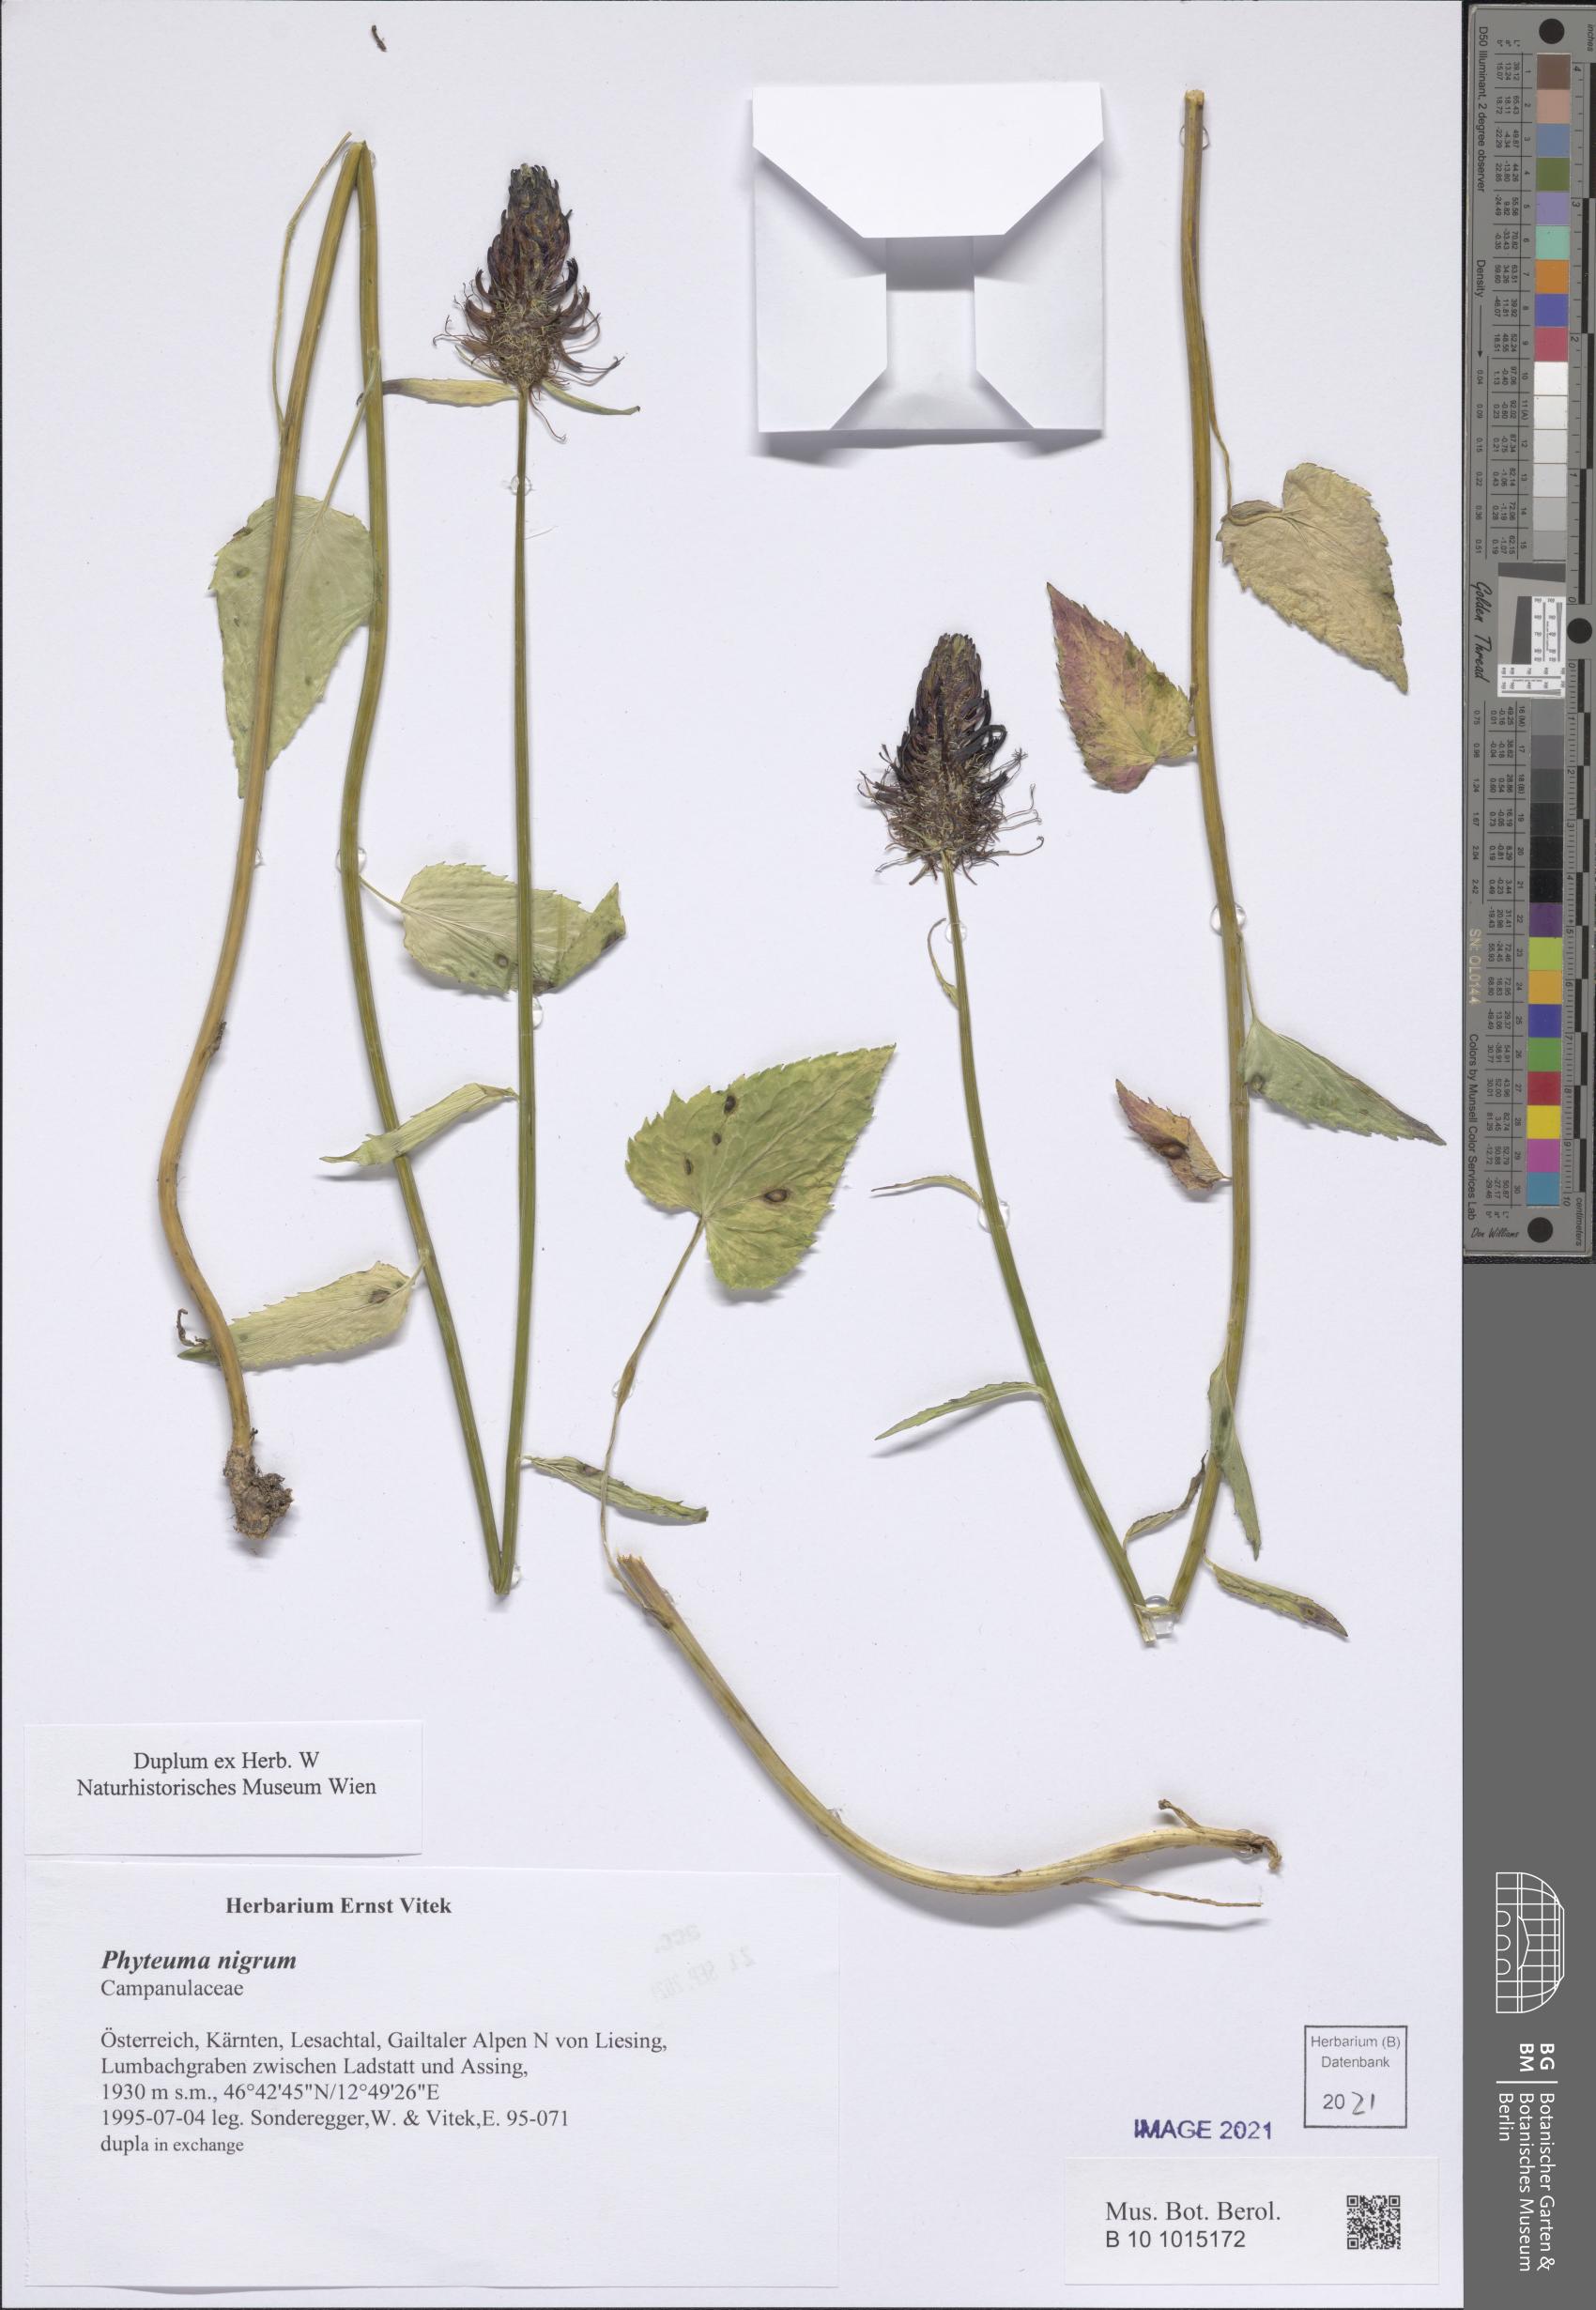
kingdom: Plantae
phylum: Tracheophyta
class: Magnoliopsida
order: Asterales
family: Campanulaceae
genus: Phyteuma
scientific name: Phyteuma nigrum
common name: Black rampion
